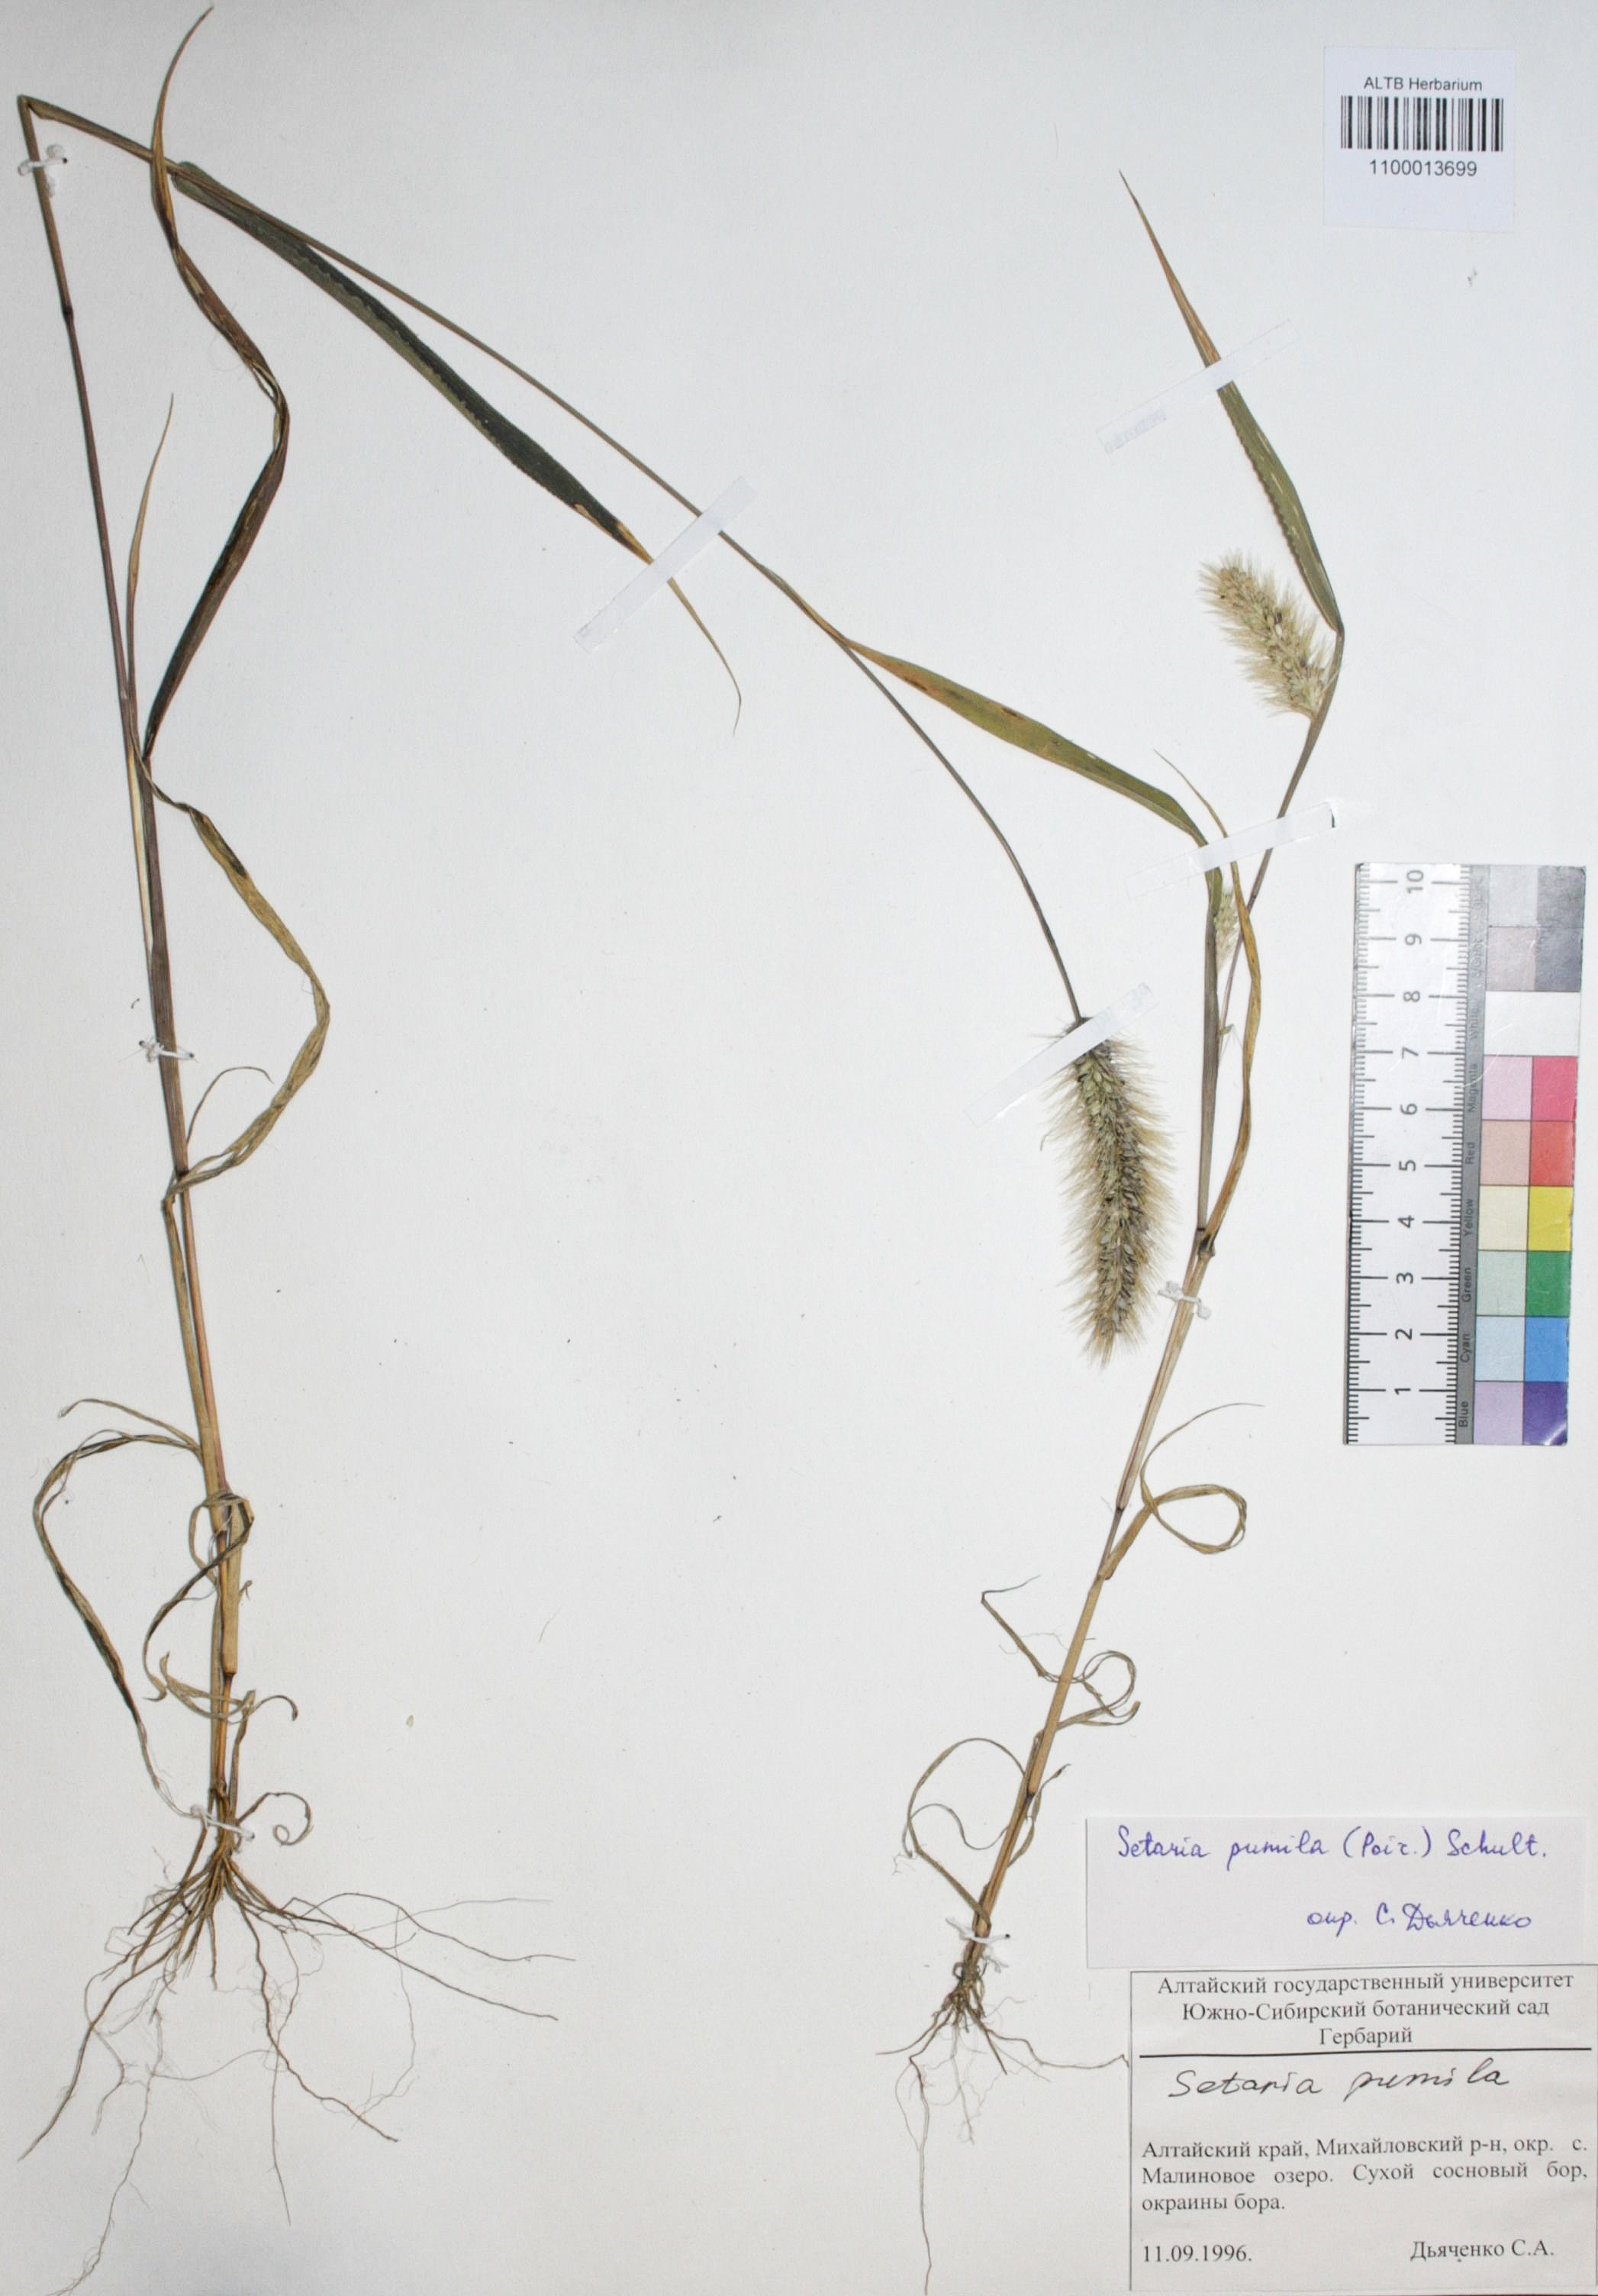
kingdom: Plantae
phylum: Tracheophyta
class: Liliopsida
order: Poales
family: Poaceae
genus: Setaria
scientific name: Setaria viridis
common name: Green bristlegrass
